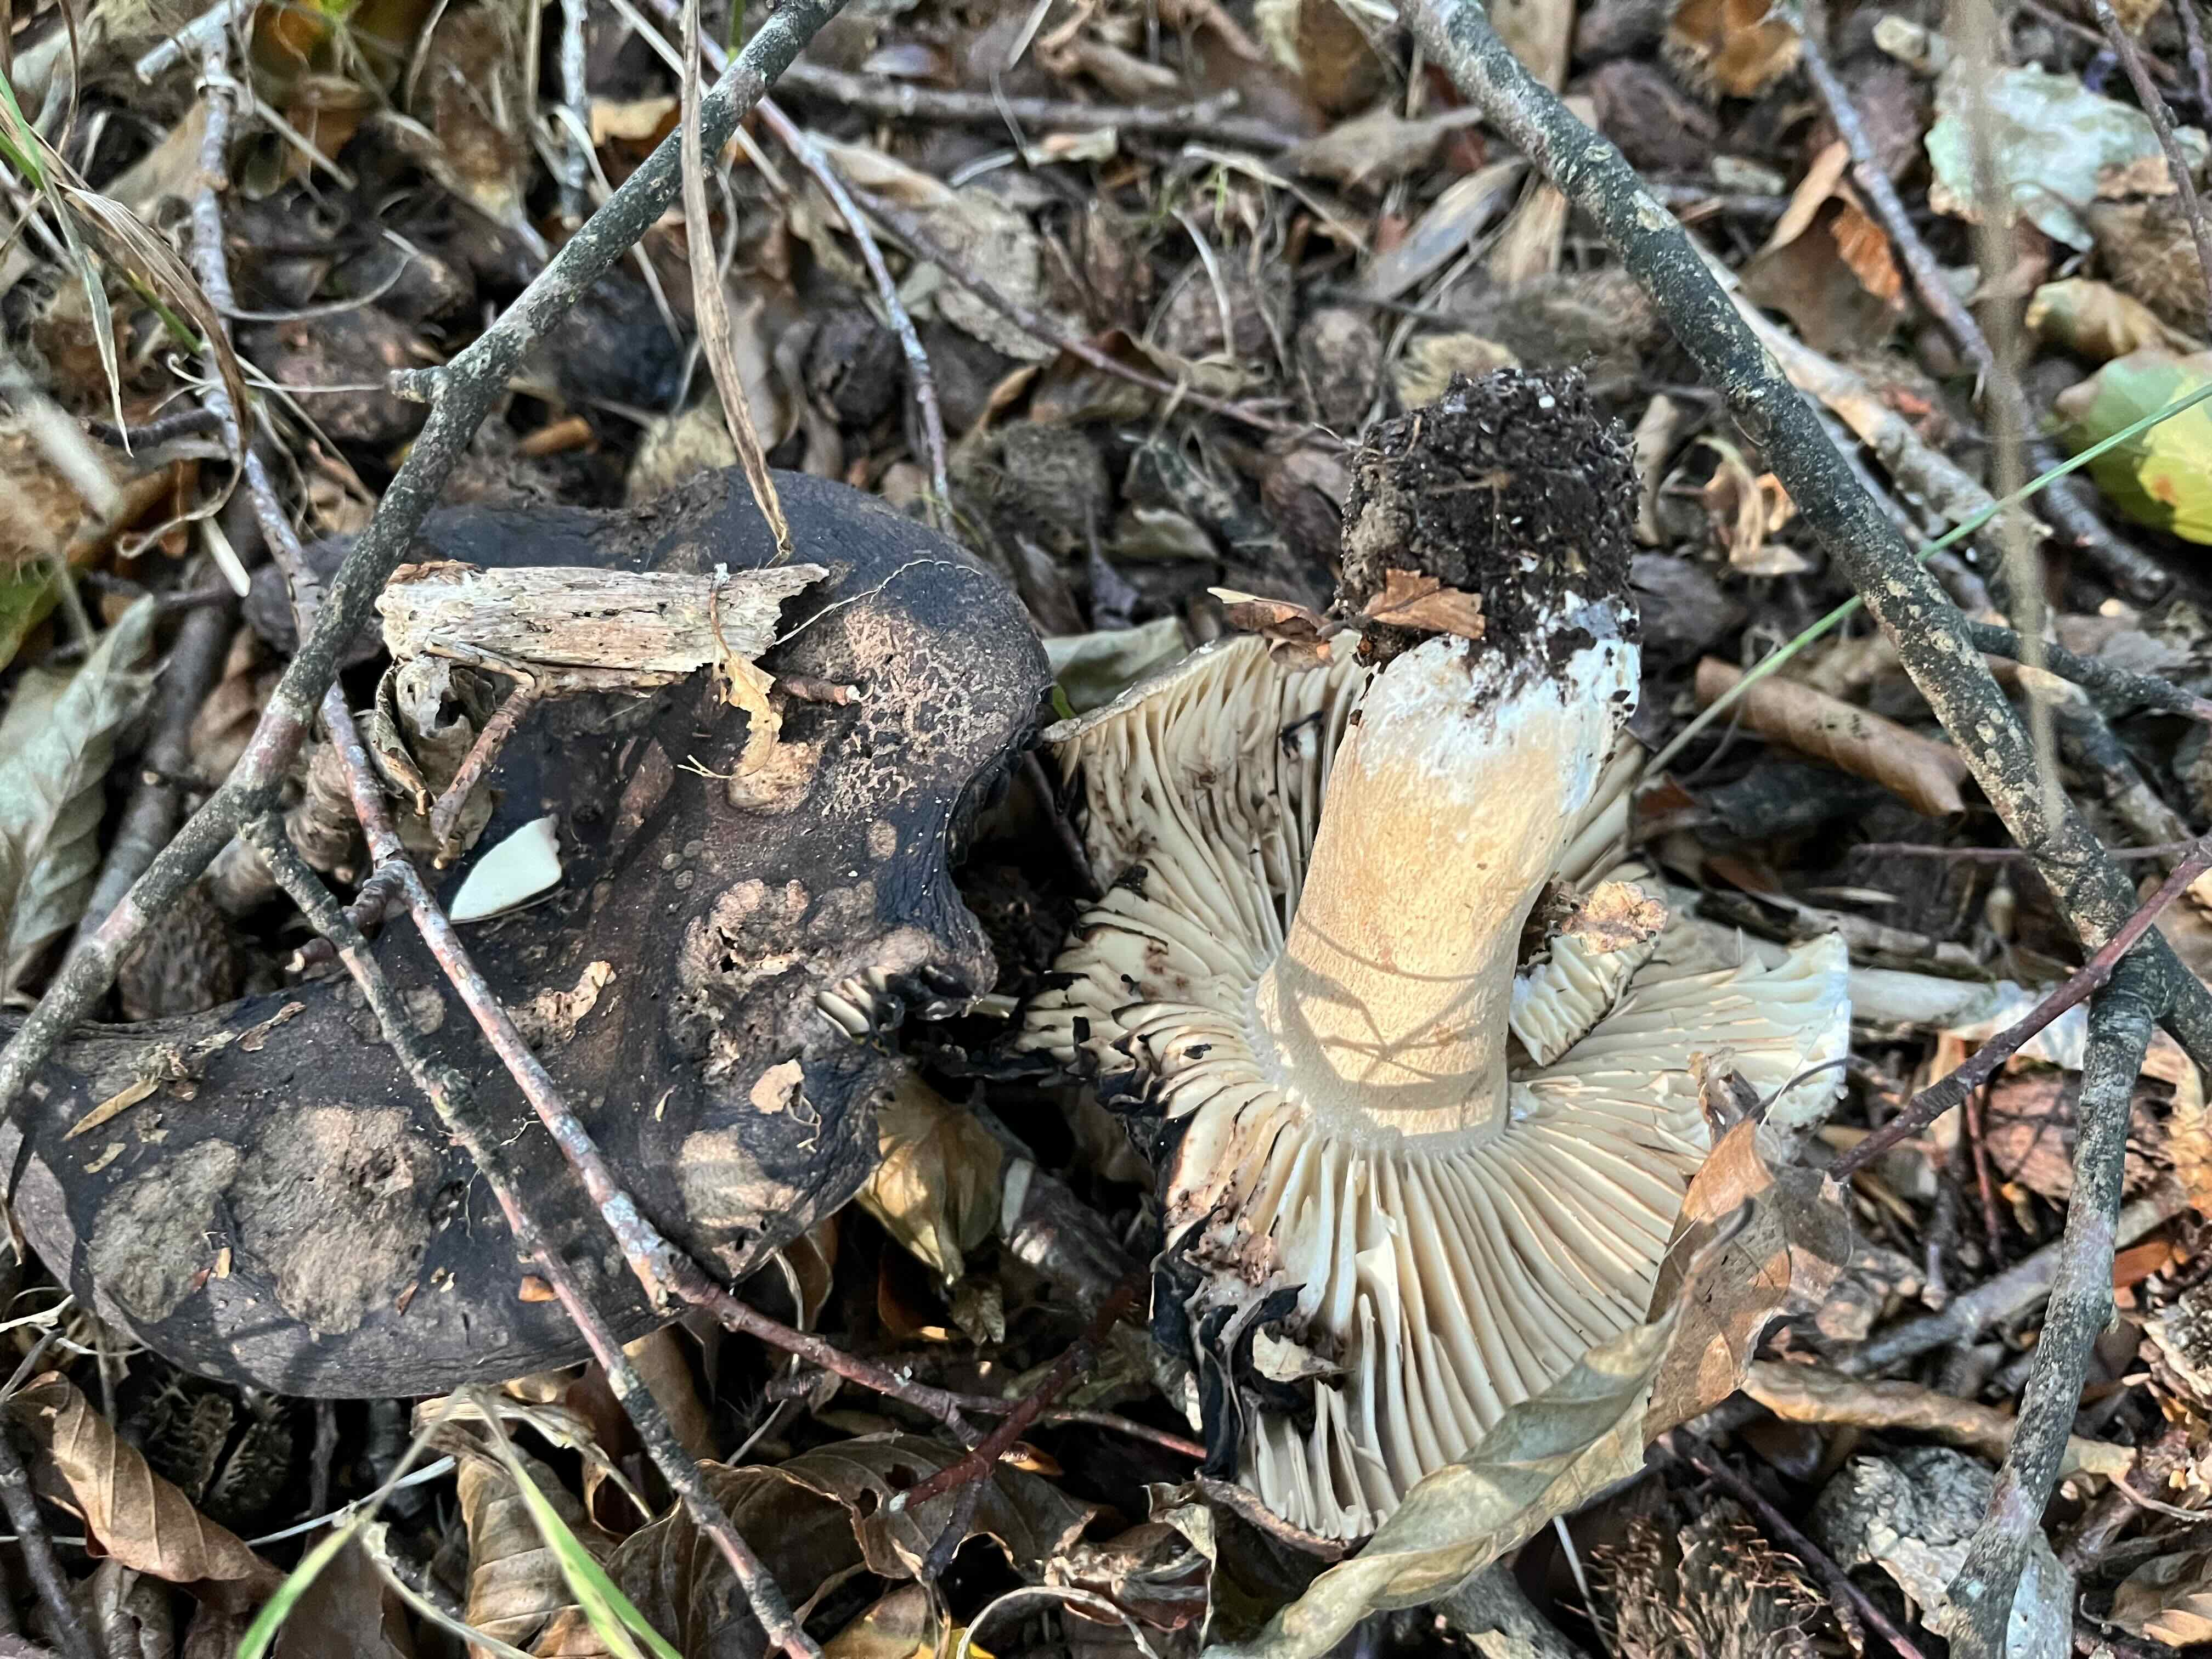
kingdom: Fungi
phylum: Basidiomycota
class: Agaricomycetes
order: Russulales
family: Russulaceae
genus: Russula
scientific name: Russula adusta
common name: sværtende skørhat
